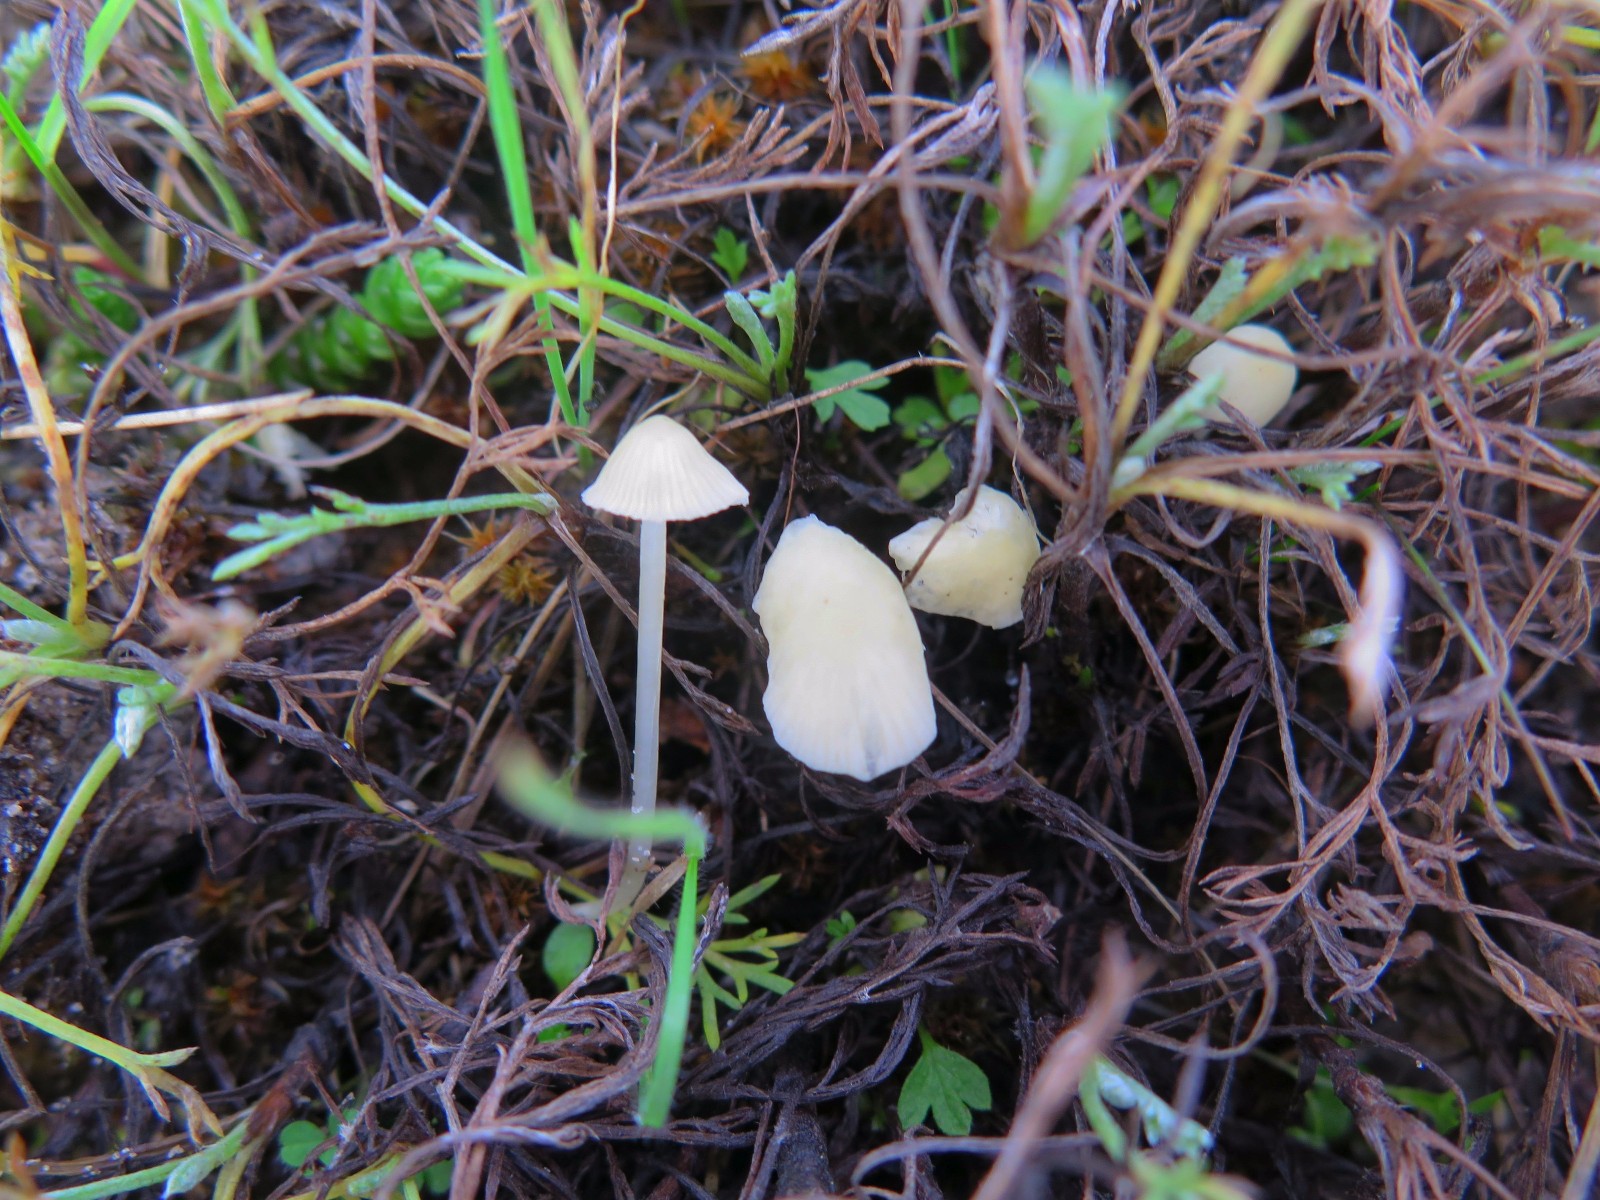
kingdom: Fungi
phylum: Basidiomycota
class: Agaricomycetes
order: Agaricales
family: Mycenaceae
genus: Atheniella
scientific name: Atheniella flavoalba
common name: gulhvid huesvamp
